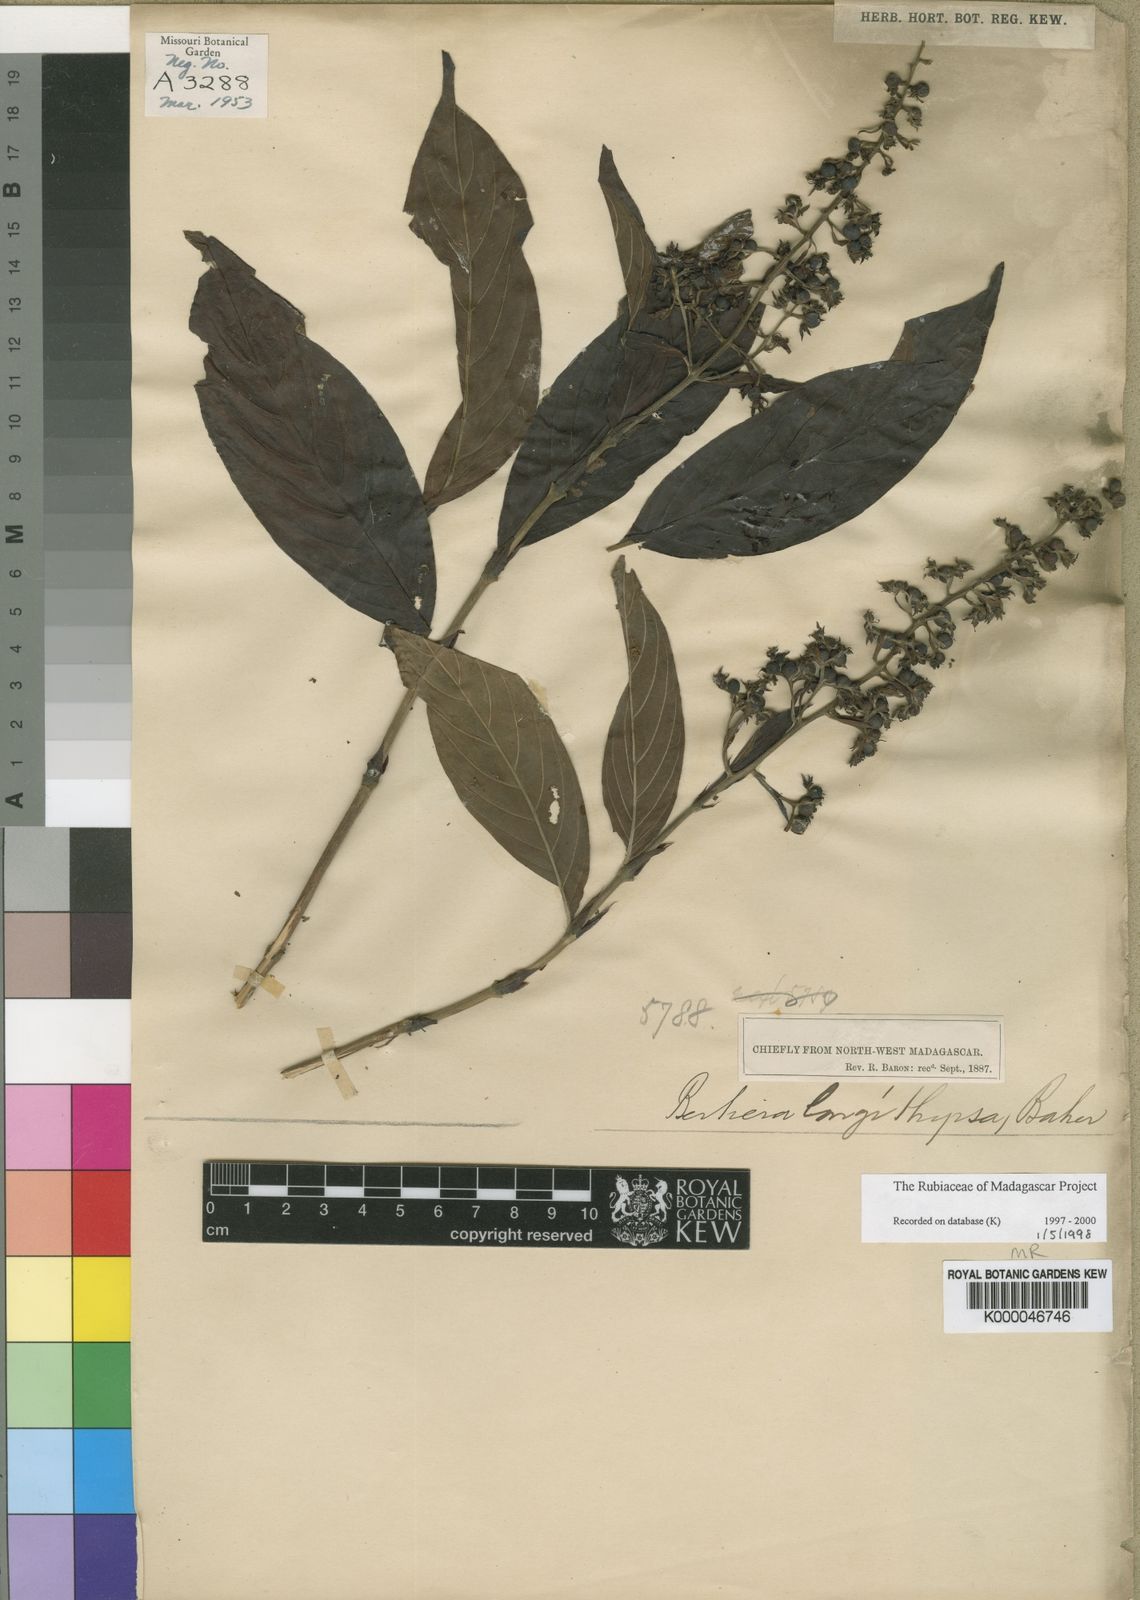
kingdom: Plantae
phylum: Tracheophyta
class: Magnoliopsida
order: Gentianales
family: Rubiaceae
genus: Bertiera
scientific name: Bertiera longithyrsa
